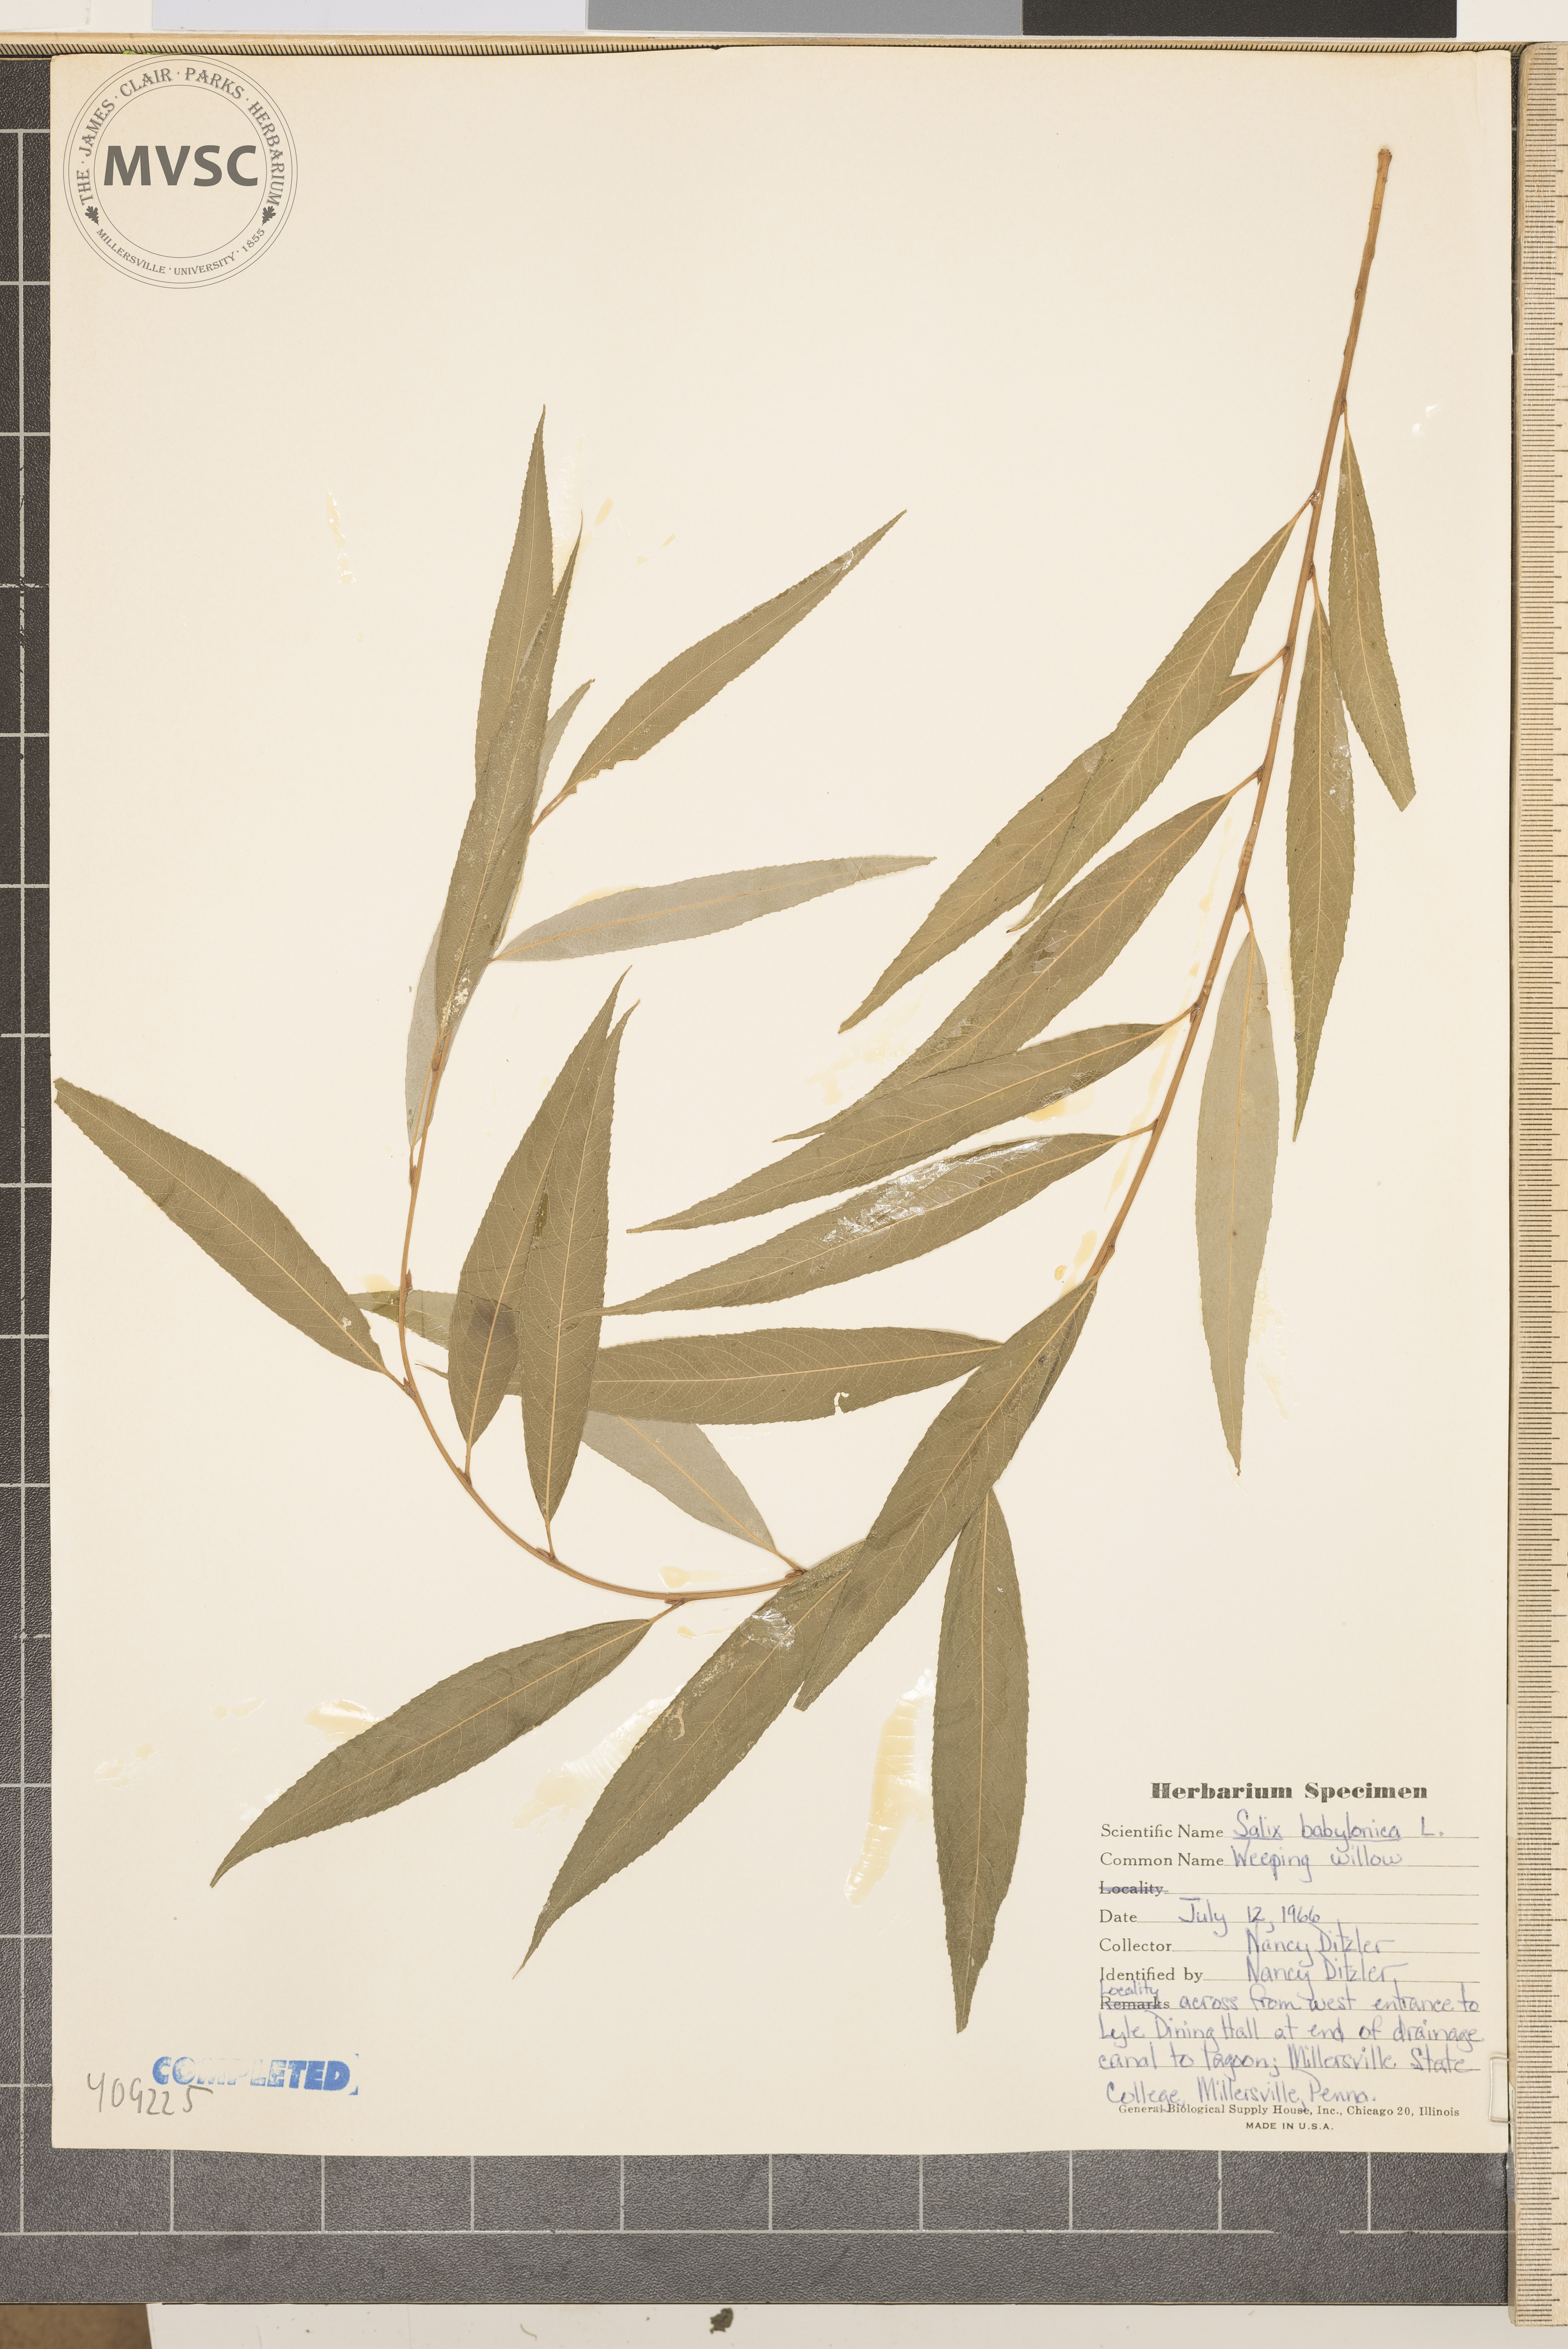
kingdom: Plantae
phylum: Tracheophyta
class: Magnoliopsida
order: Malpighiales
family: Salicaceae
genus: Salix
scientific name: Salix babylonica
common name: Weeping willow
